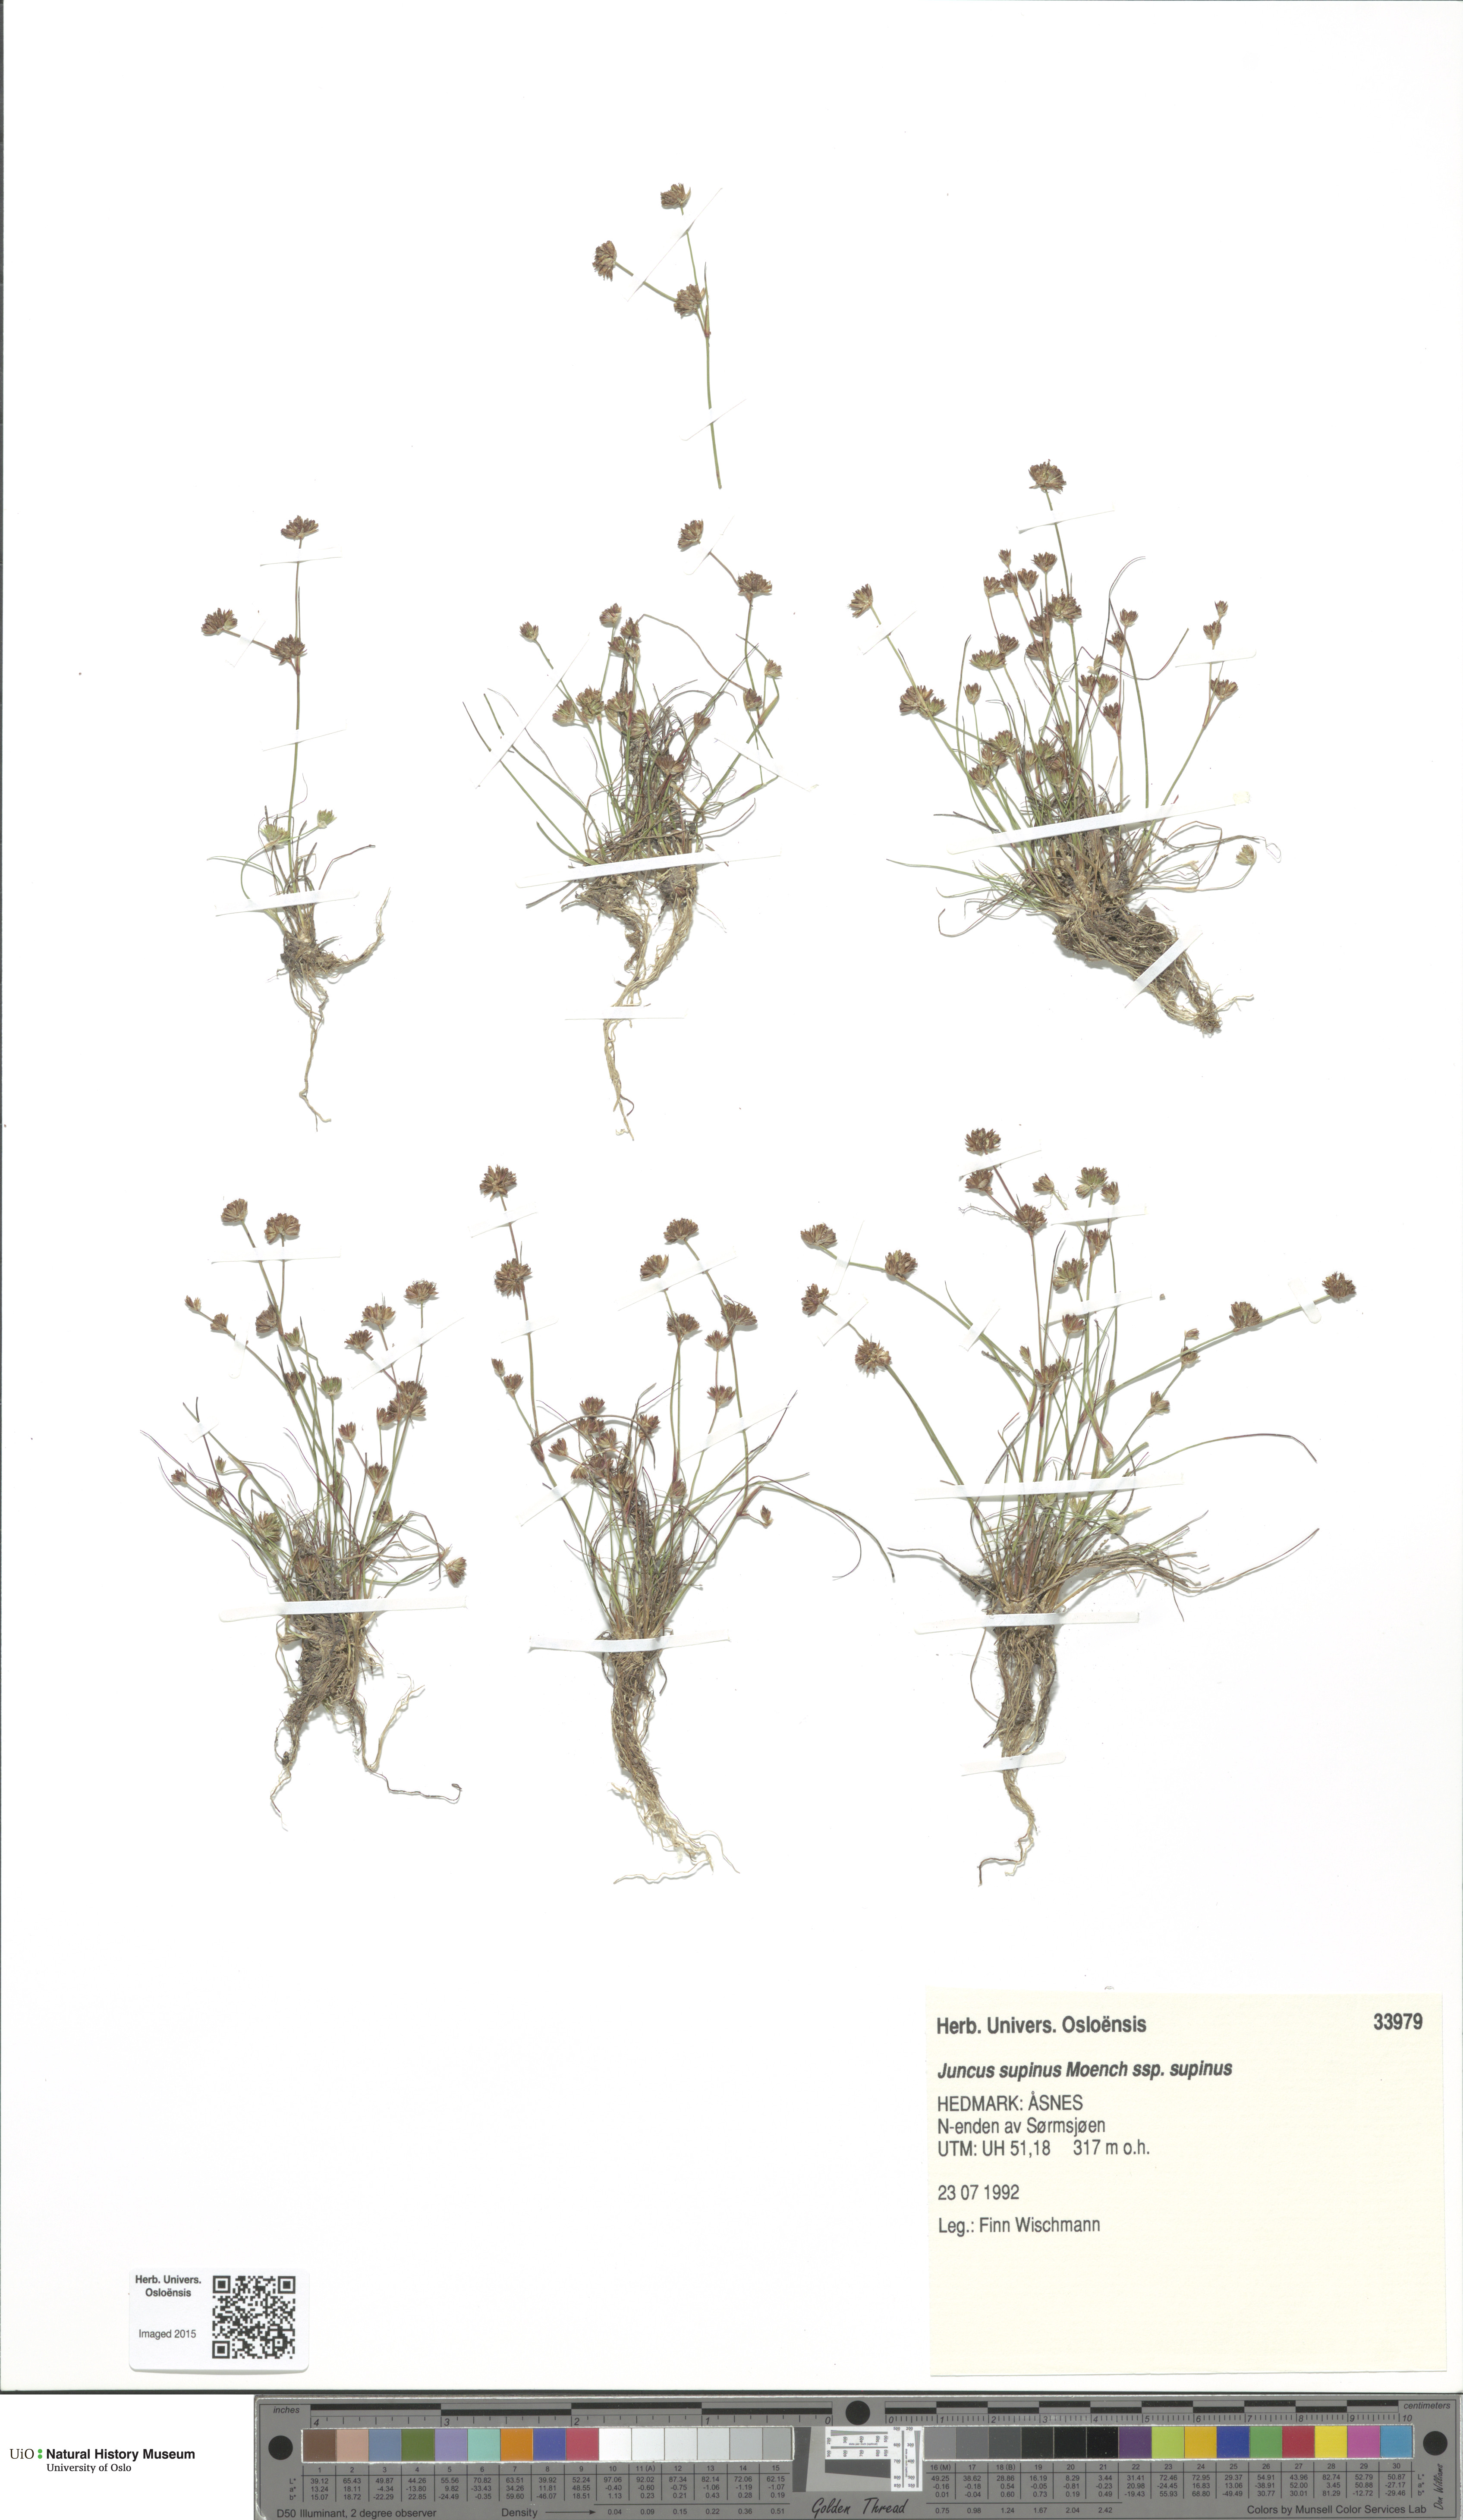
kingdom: Plantae
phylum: Tracheophyta
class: Liliopsida
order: Poales
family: Juncaceae
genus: Juncus
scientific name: Juncus bulbosus
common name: Bulbous rush
